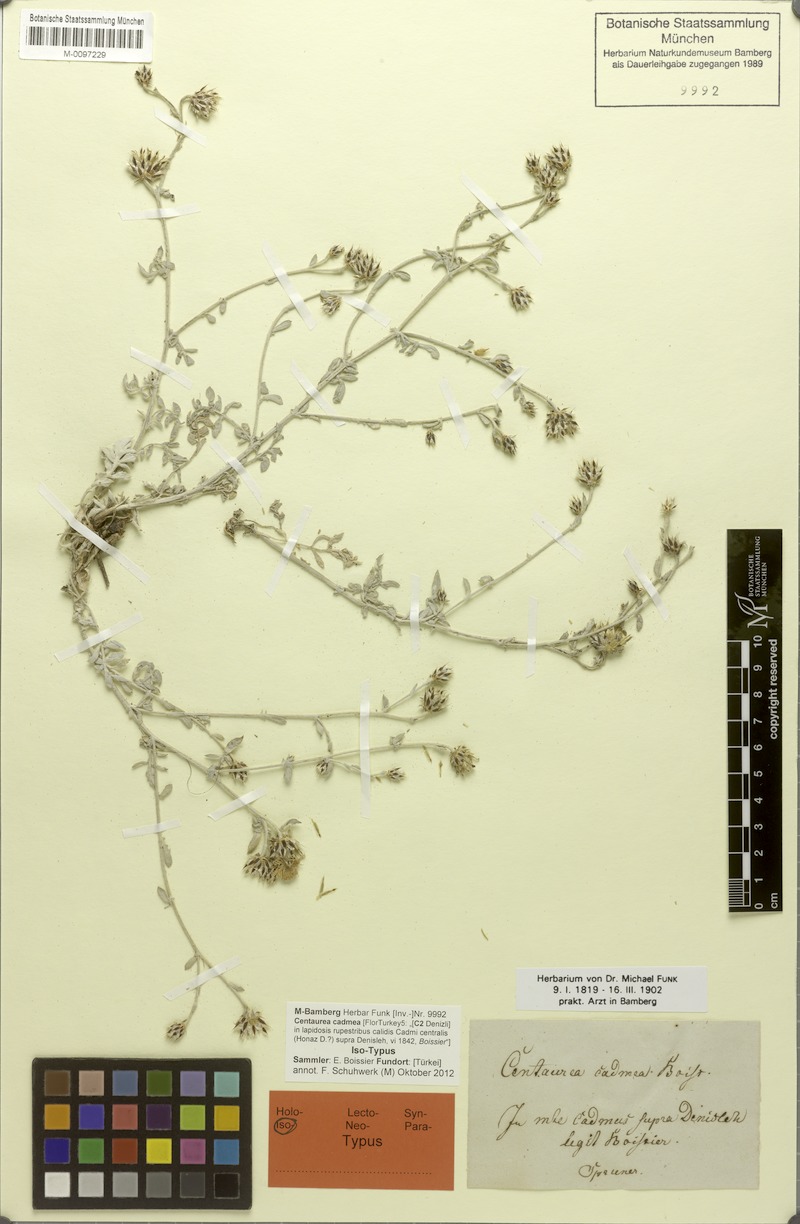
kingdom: Plantae
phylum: Tracheophyta
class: Magnoliopsida
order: Asterales
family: Asteraceae
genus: Centaurea
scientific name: Centaurea cadmea
